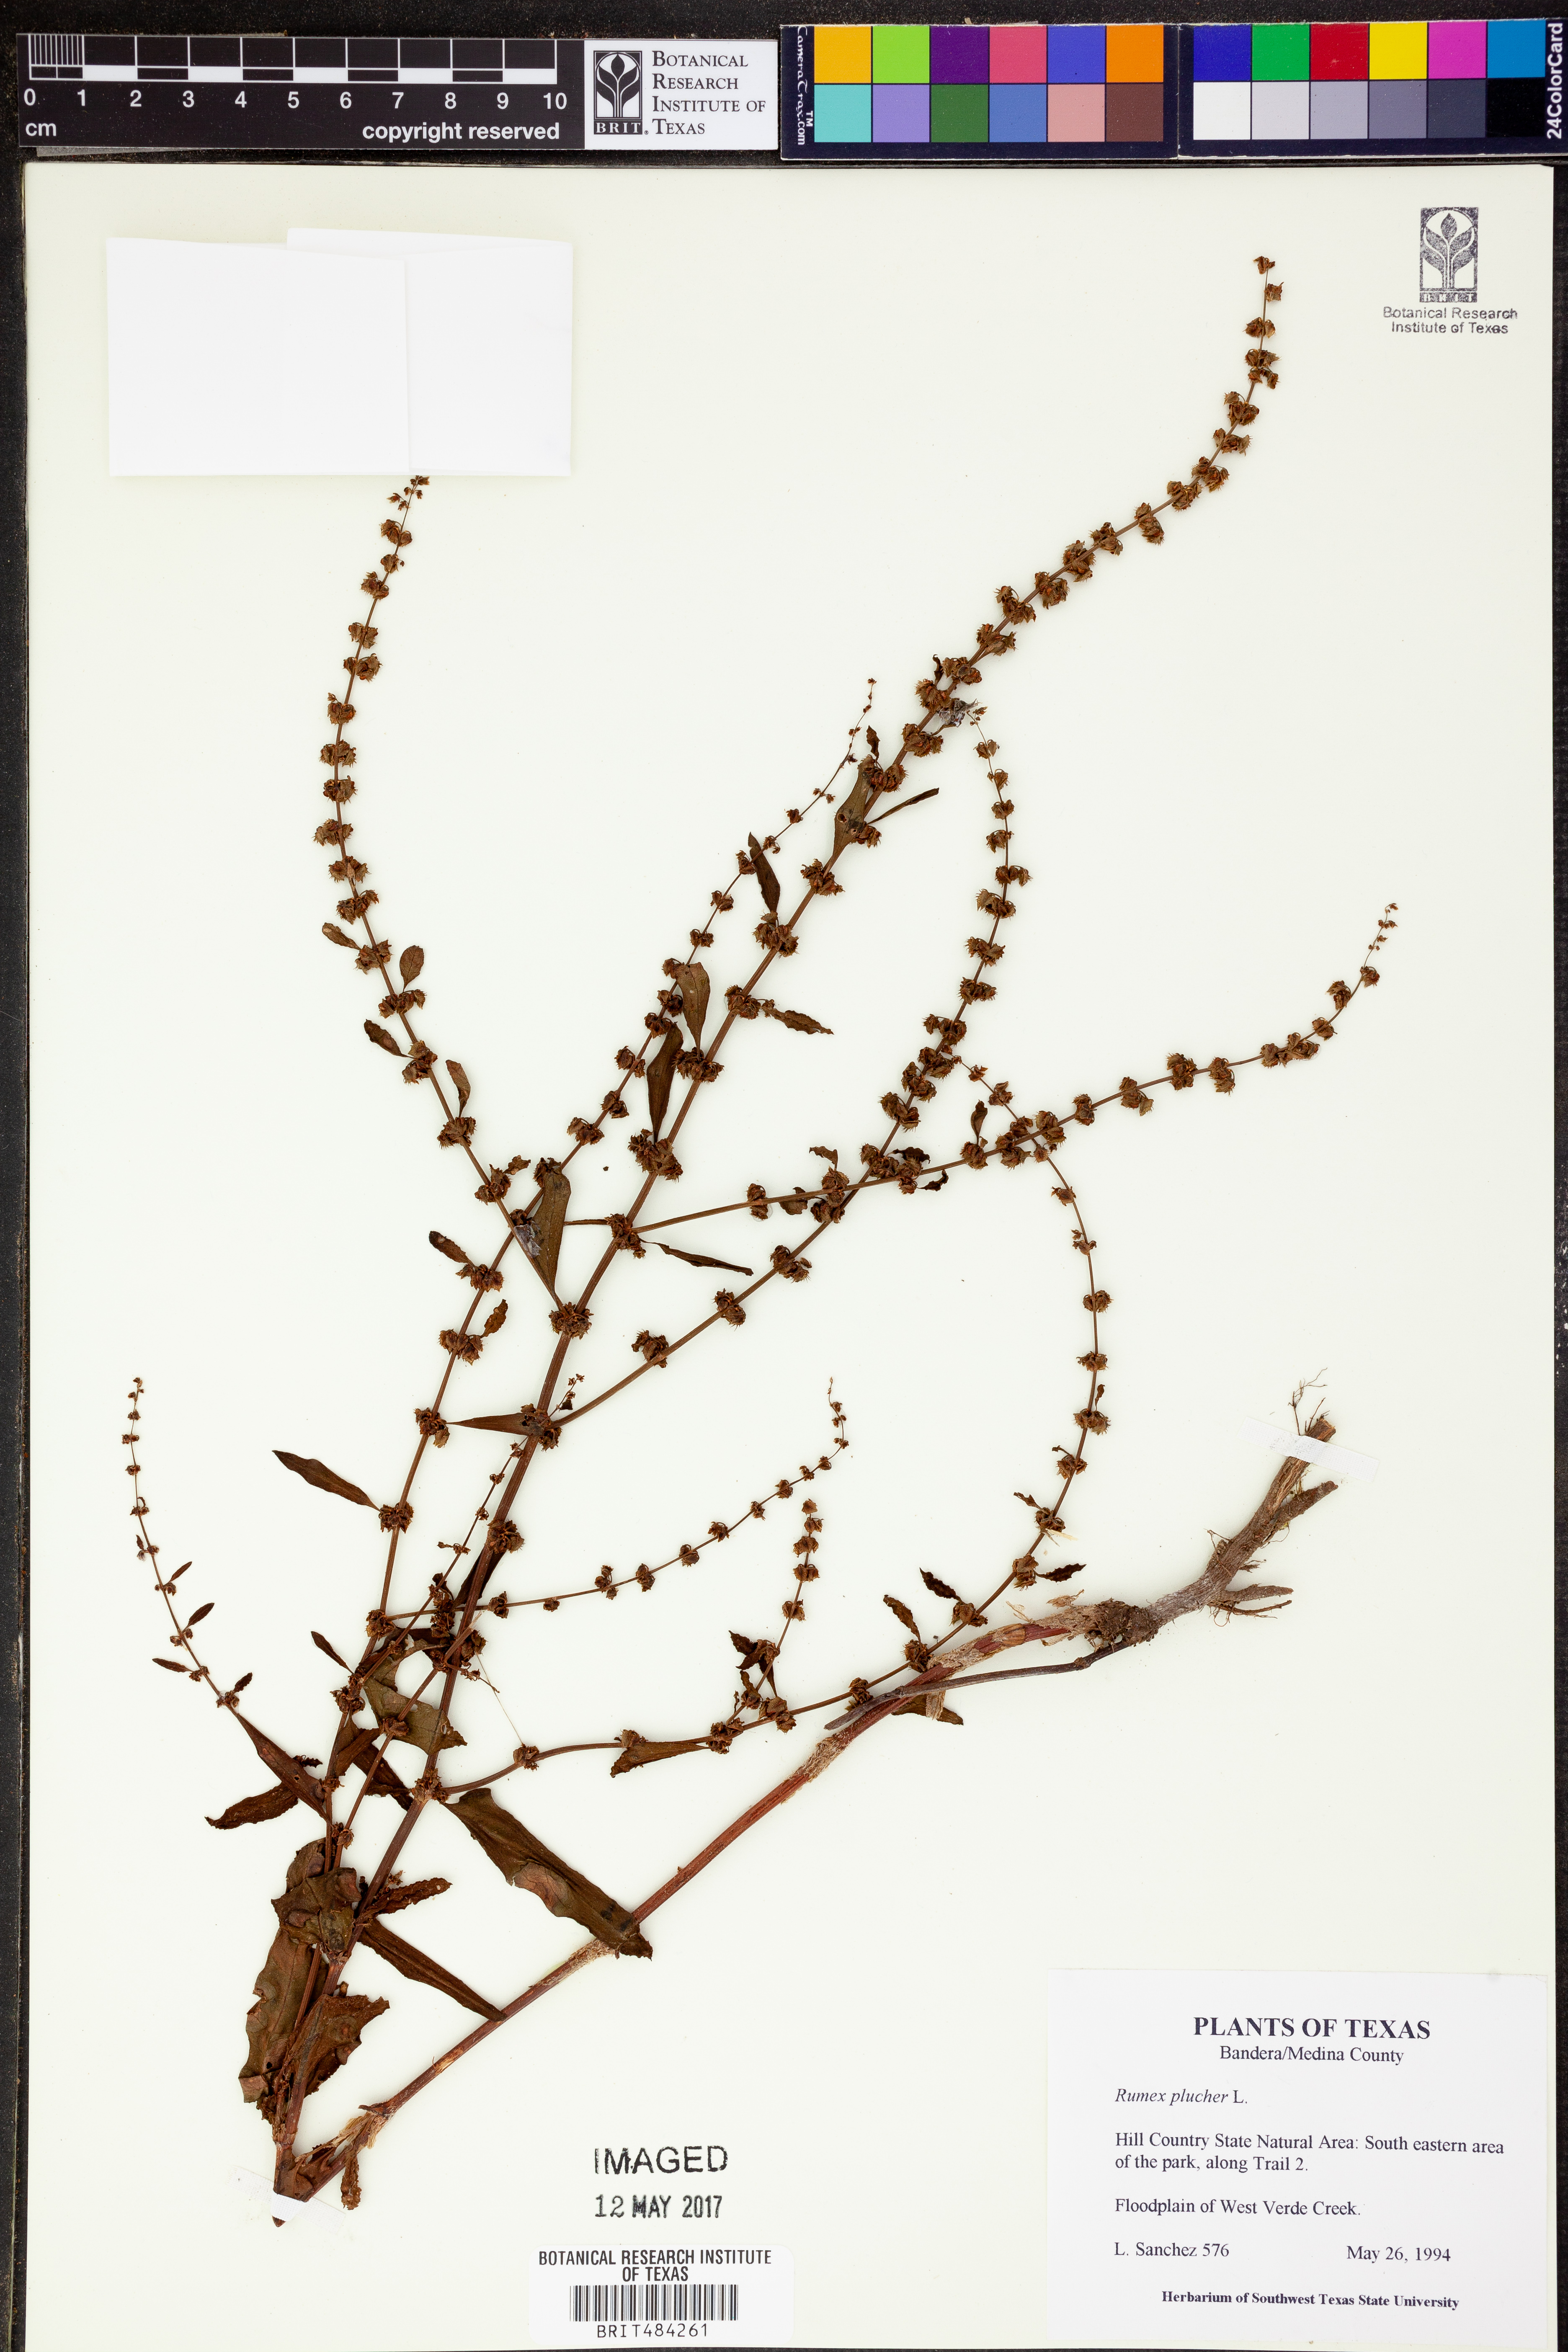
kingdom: Plantae
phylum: Tracheophyta
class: Magnoliopsida
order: Caryophyllales
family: Polygonaceae
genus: Rumex
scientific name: Rumex pulcher
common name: Fiddle dock
